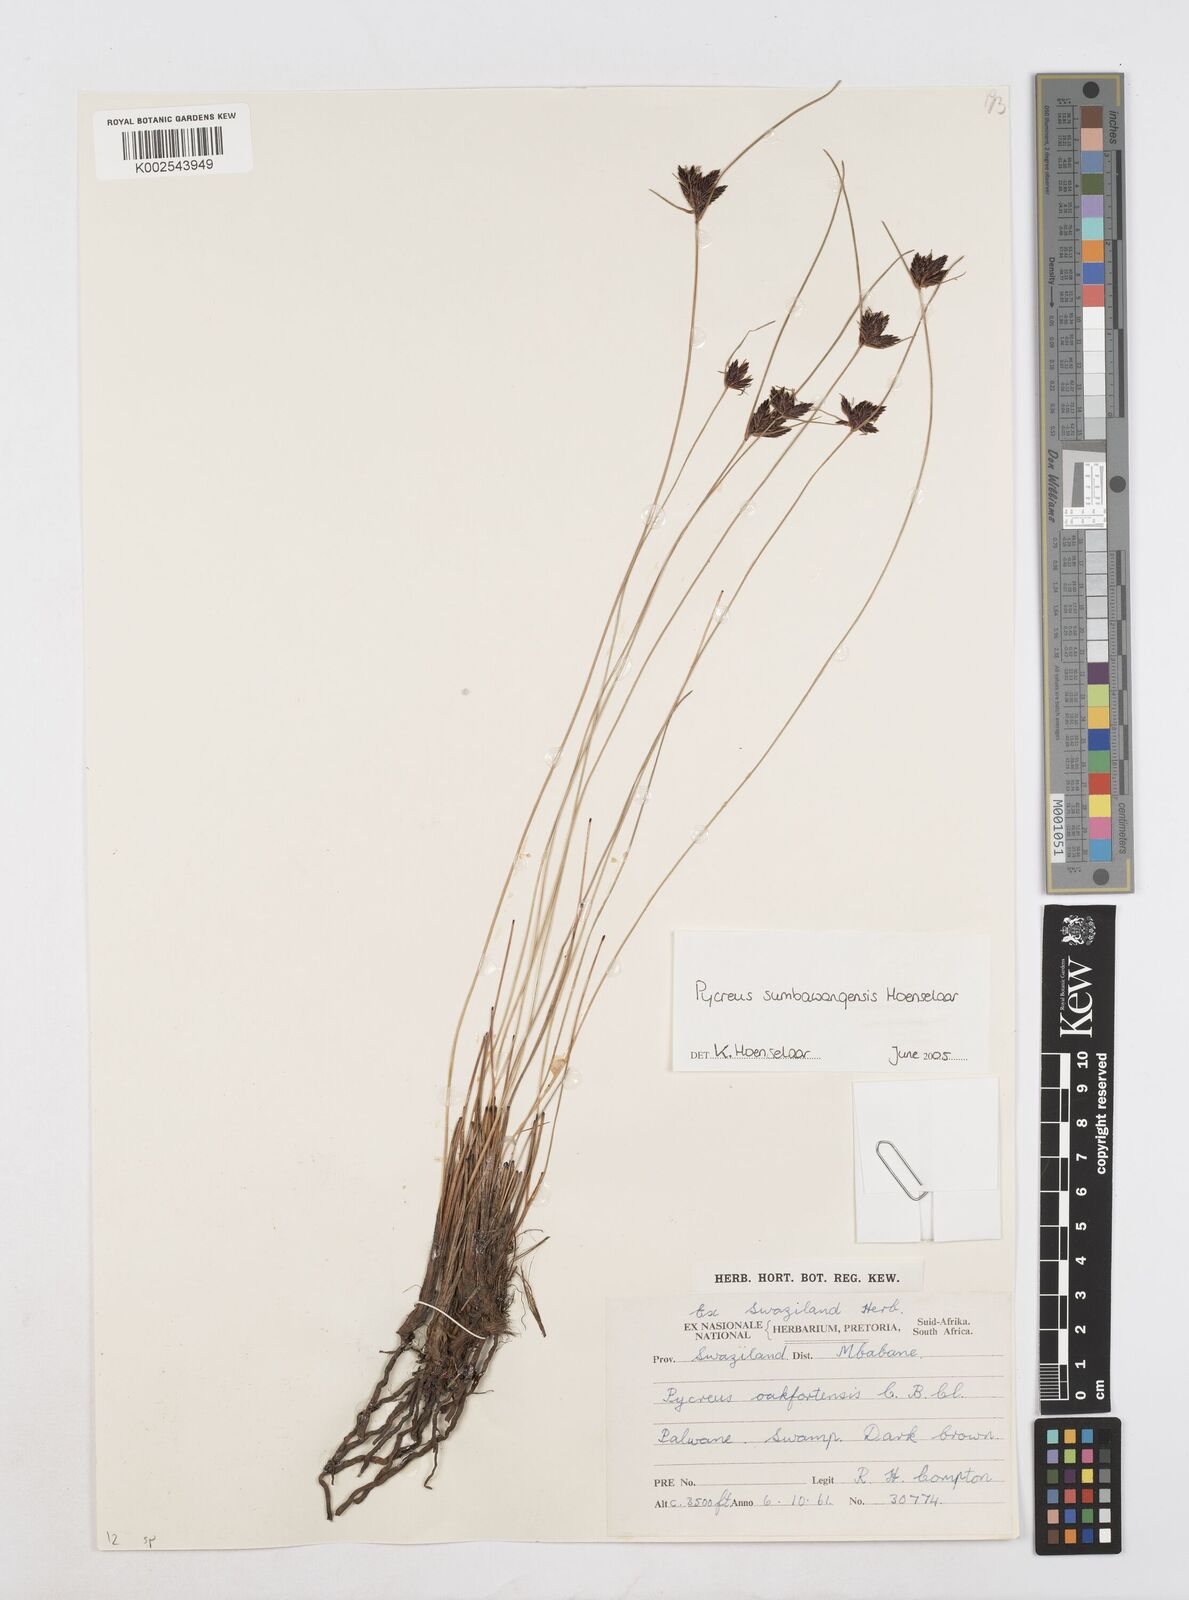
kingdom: Plantae
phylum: Tracheophyta
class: Liliopsida
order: Poales
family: Cyperaceae
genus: Cyperus
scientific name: Cyperus nigricans
